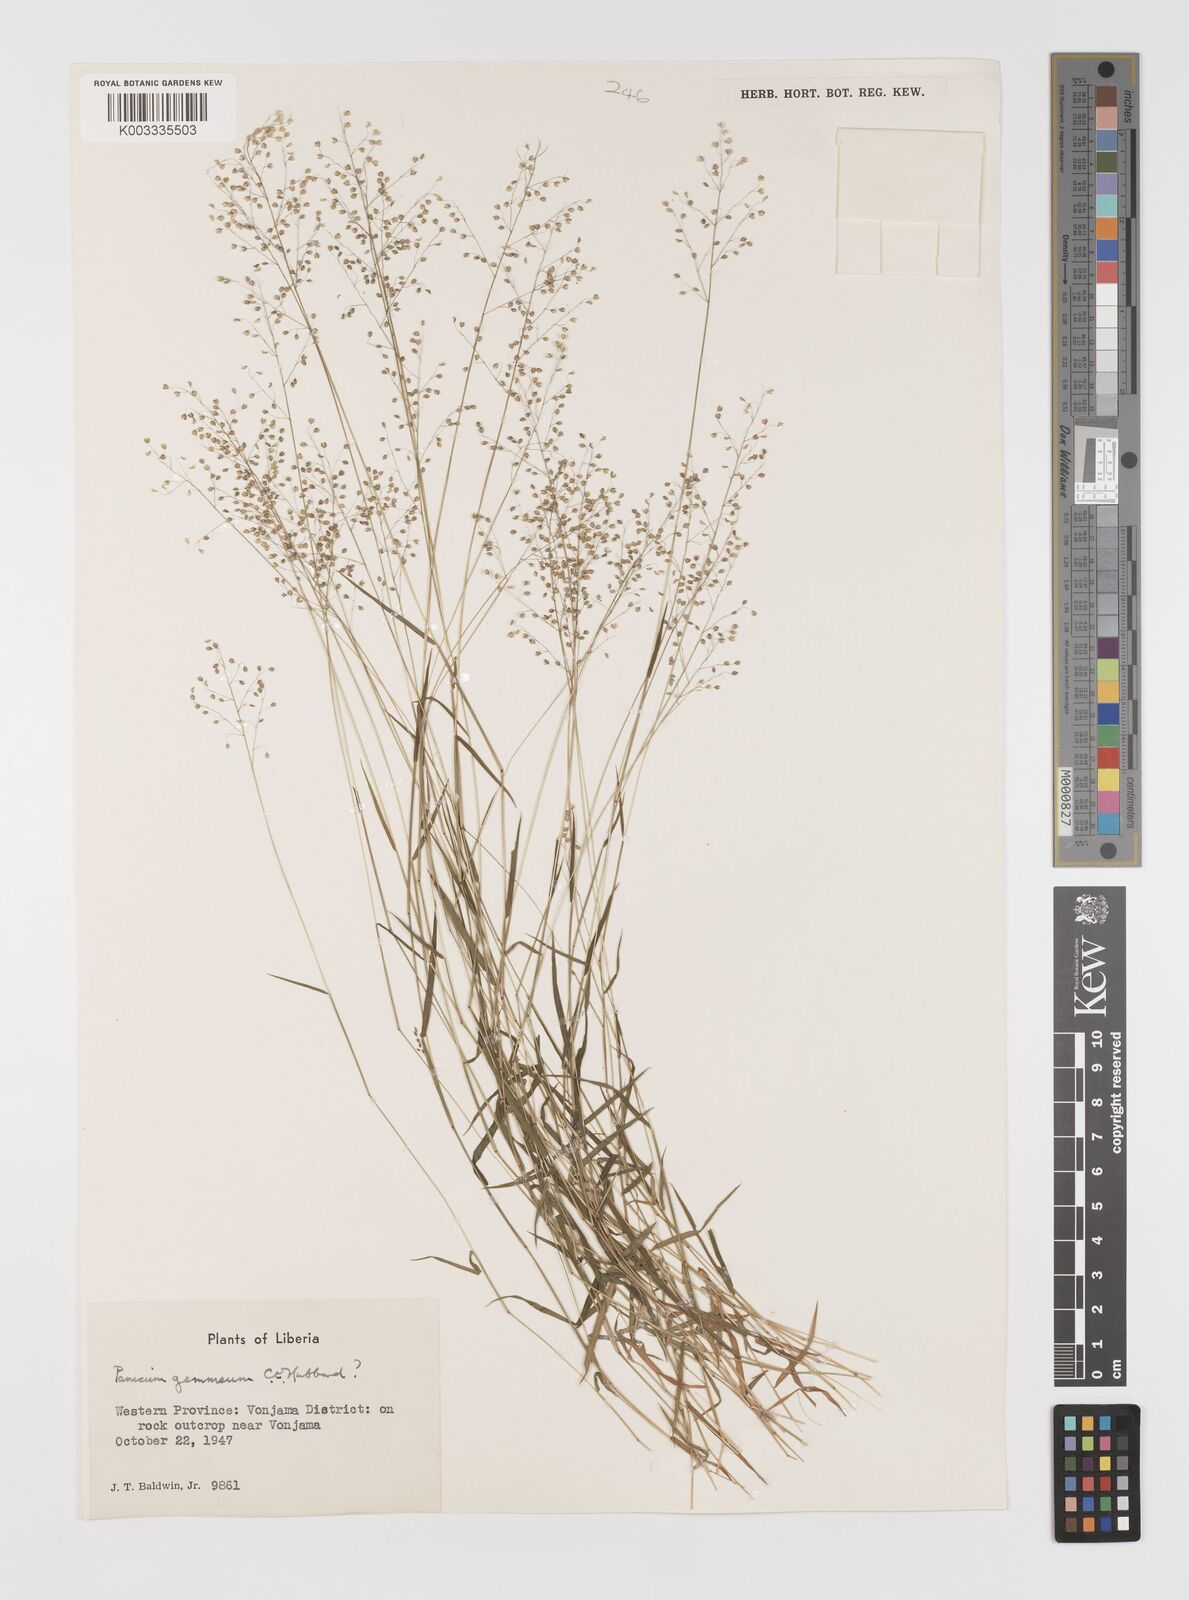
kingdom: Plantae
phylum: Tracheophyta
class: Liliopsida
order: Poales
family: Poaceae
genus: Trichanthecium
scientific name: Trichanthecium tenellum
